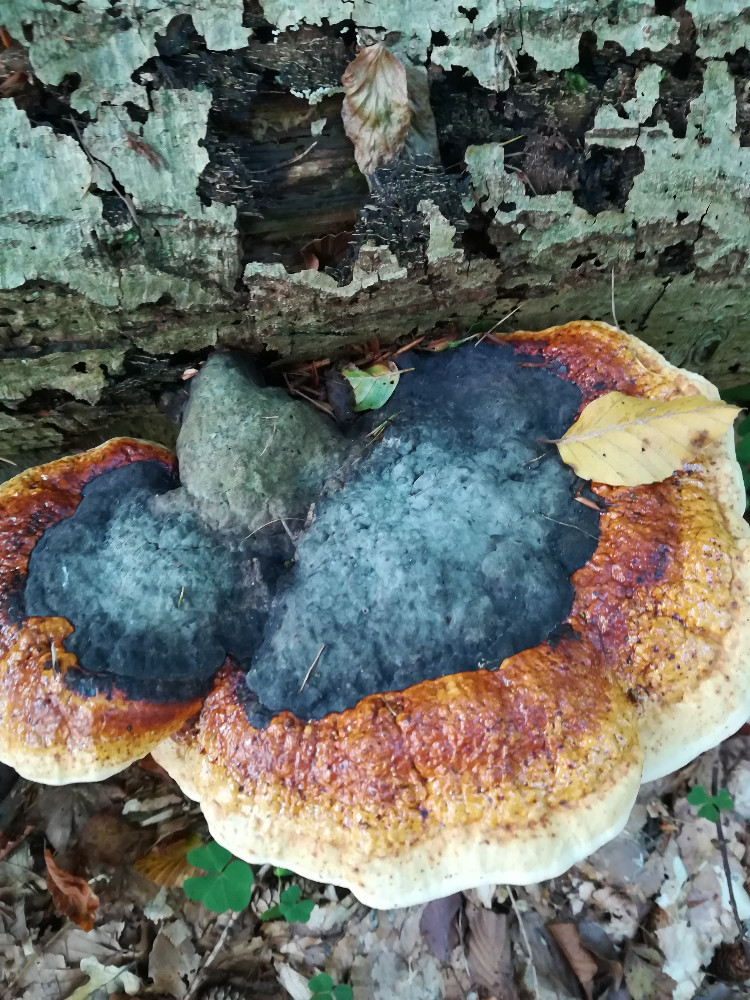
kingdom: Fungi
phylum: Basidiomycota
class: Agaricomycetes
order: Polyporales
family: Fomitopsidaceae
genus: Fomitopsis
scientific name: Fomitopsis pinicola
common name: randbæltet hovporesvamp
